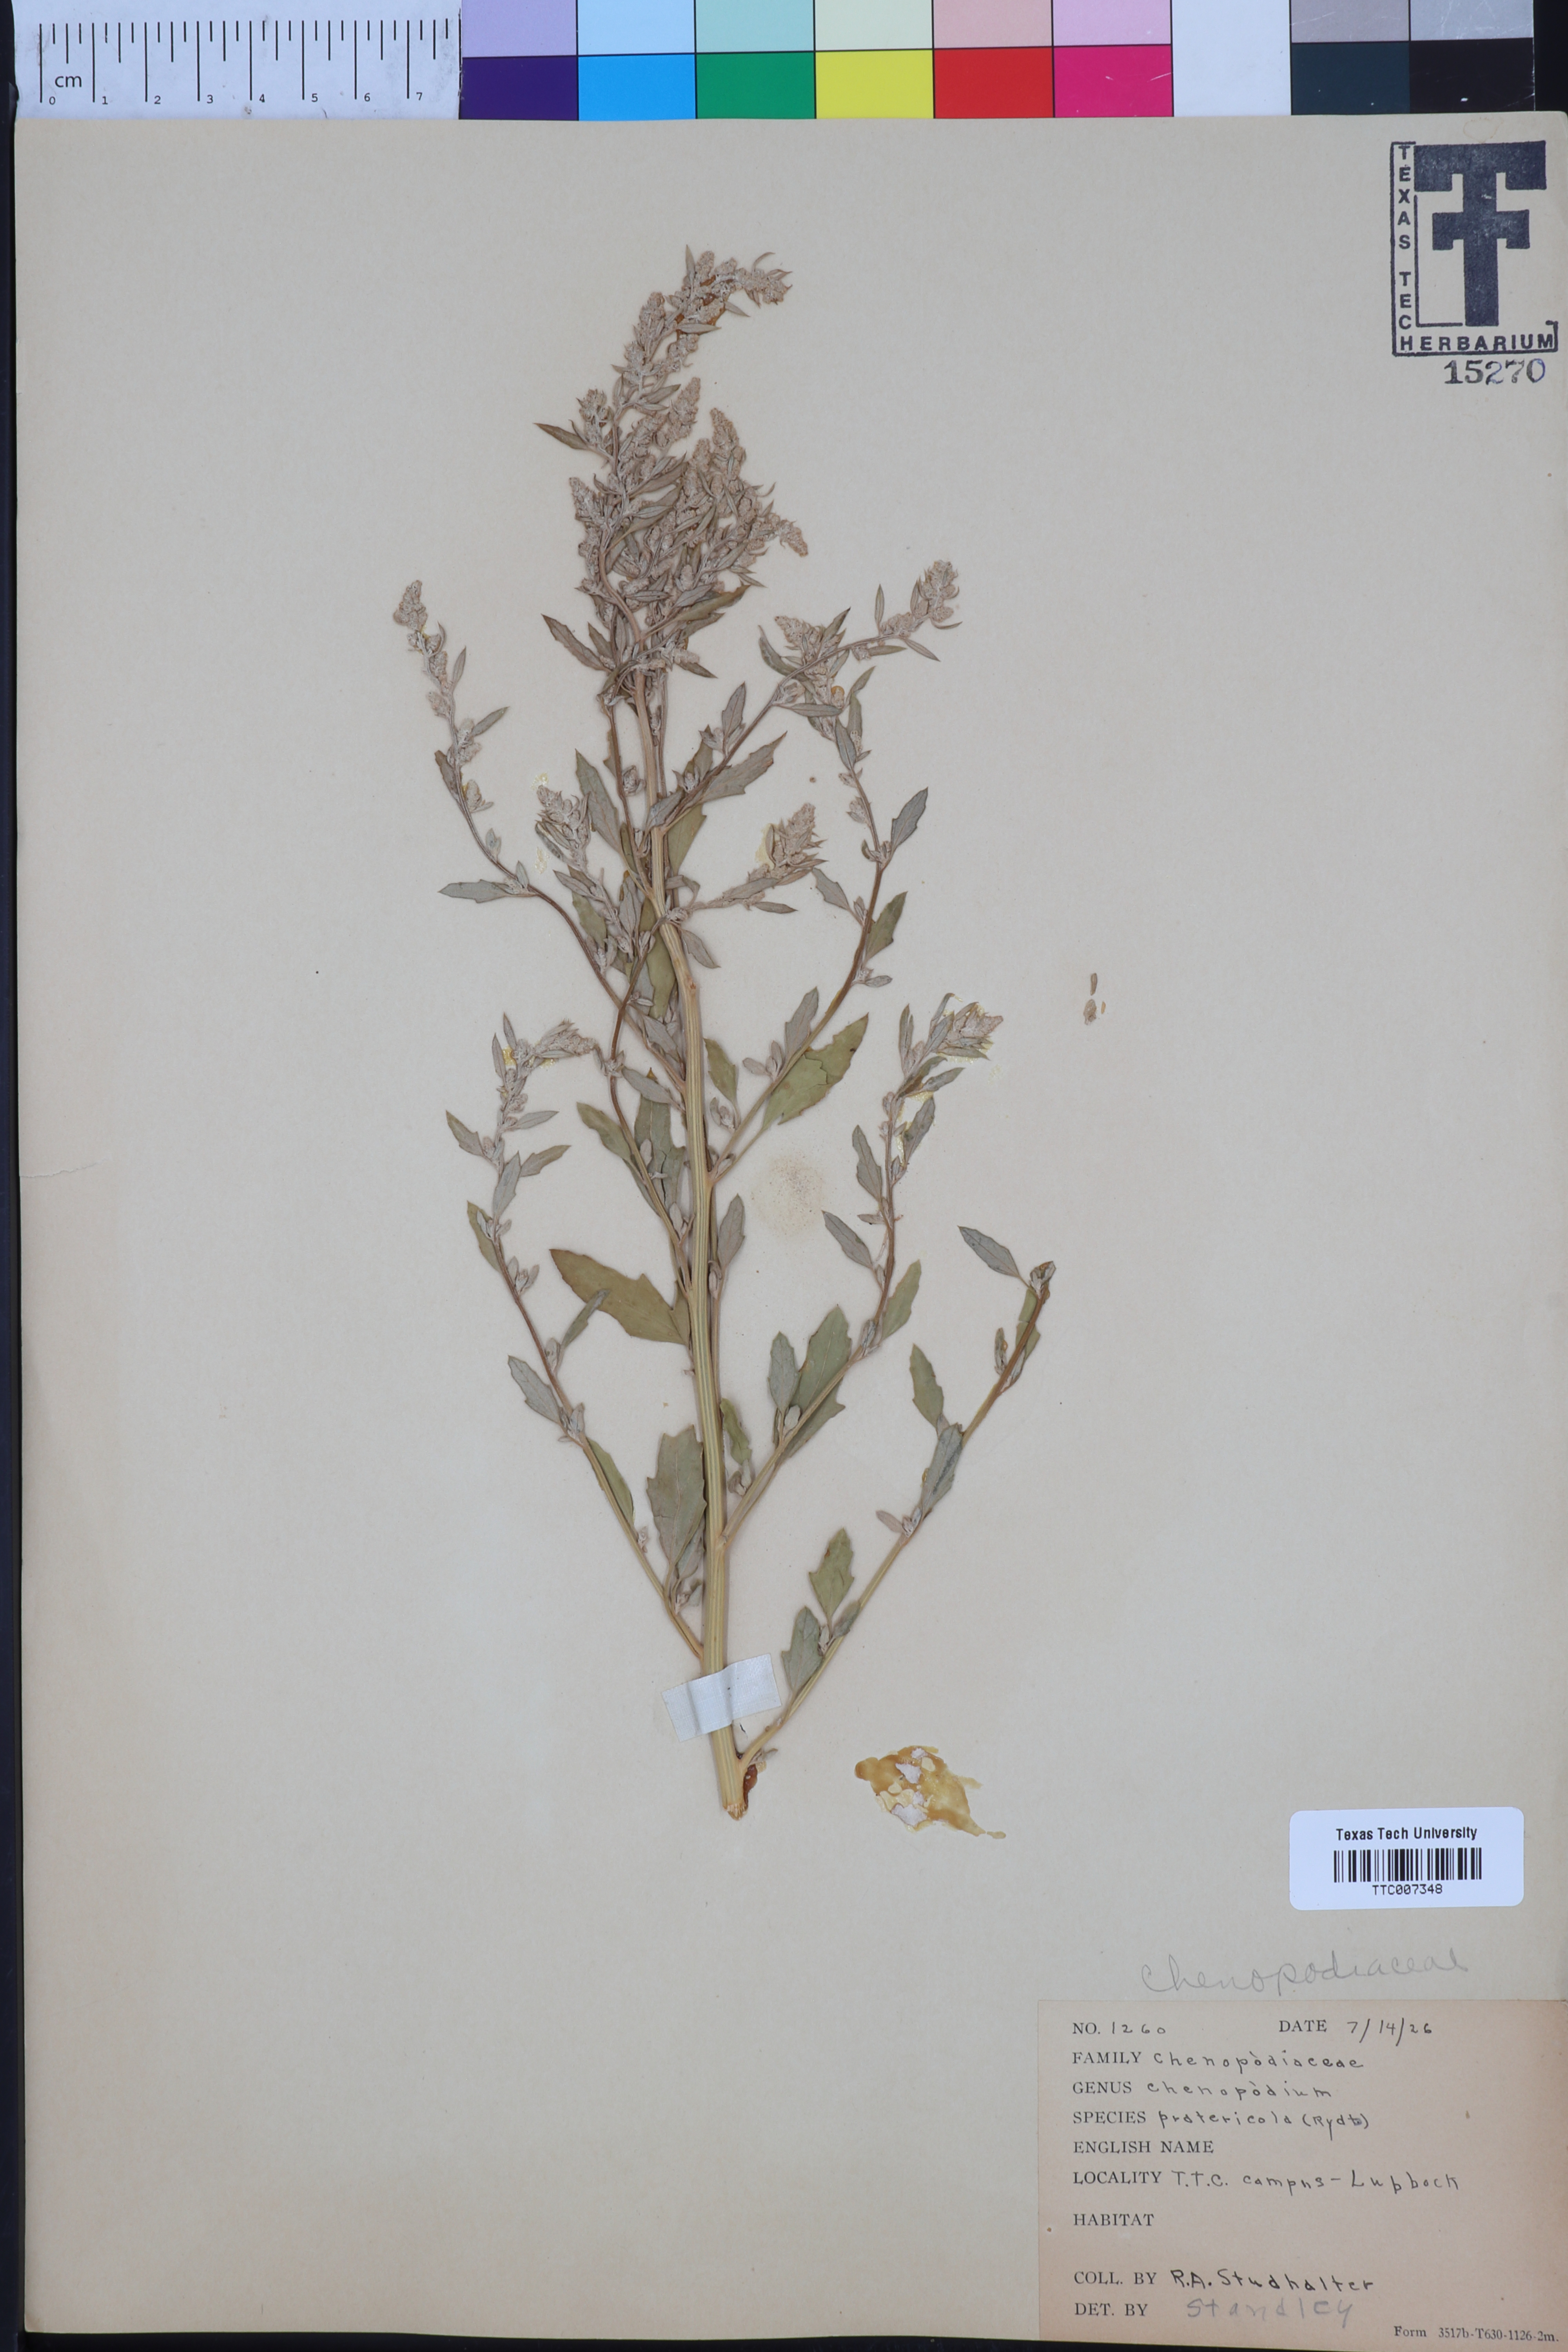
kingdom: Plantae
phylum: Tracheophyta
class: Magnoliopsida
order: Caryophyllales
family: Amaranthaceae
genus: Chenopodium
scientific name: Chenopodium pratericola
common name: Desert goosefoot
